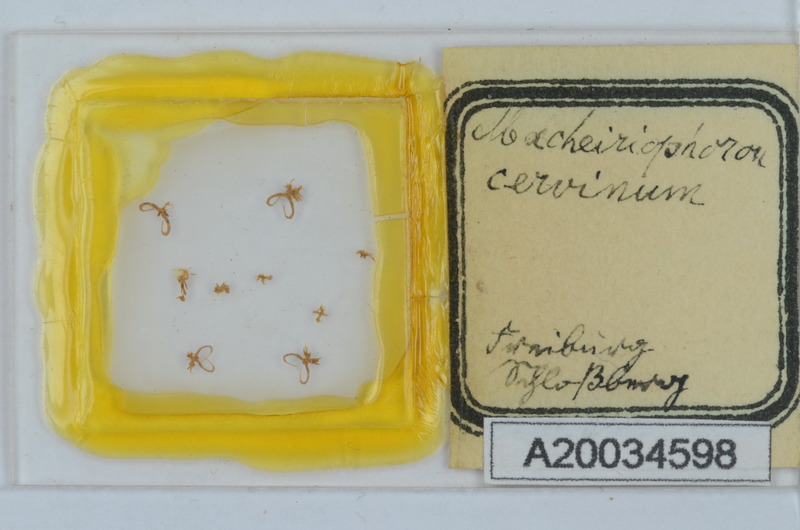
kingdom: Animalia
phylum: Arthropoda
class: Diplopoda
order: Chordeumatida
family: Craspedosomatidae
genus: Rhymogona
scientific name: Rhymogona montivaga
